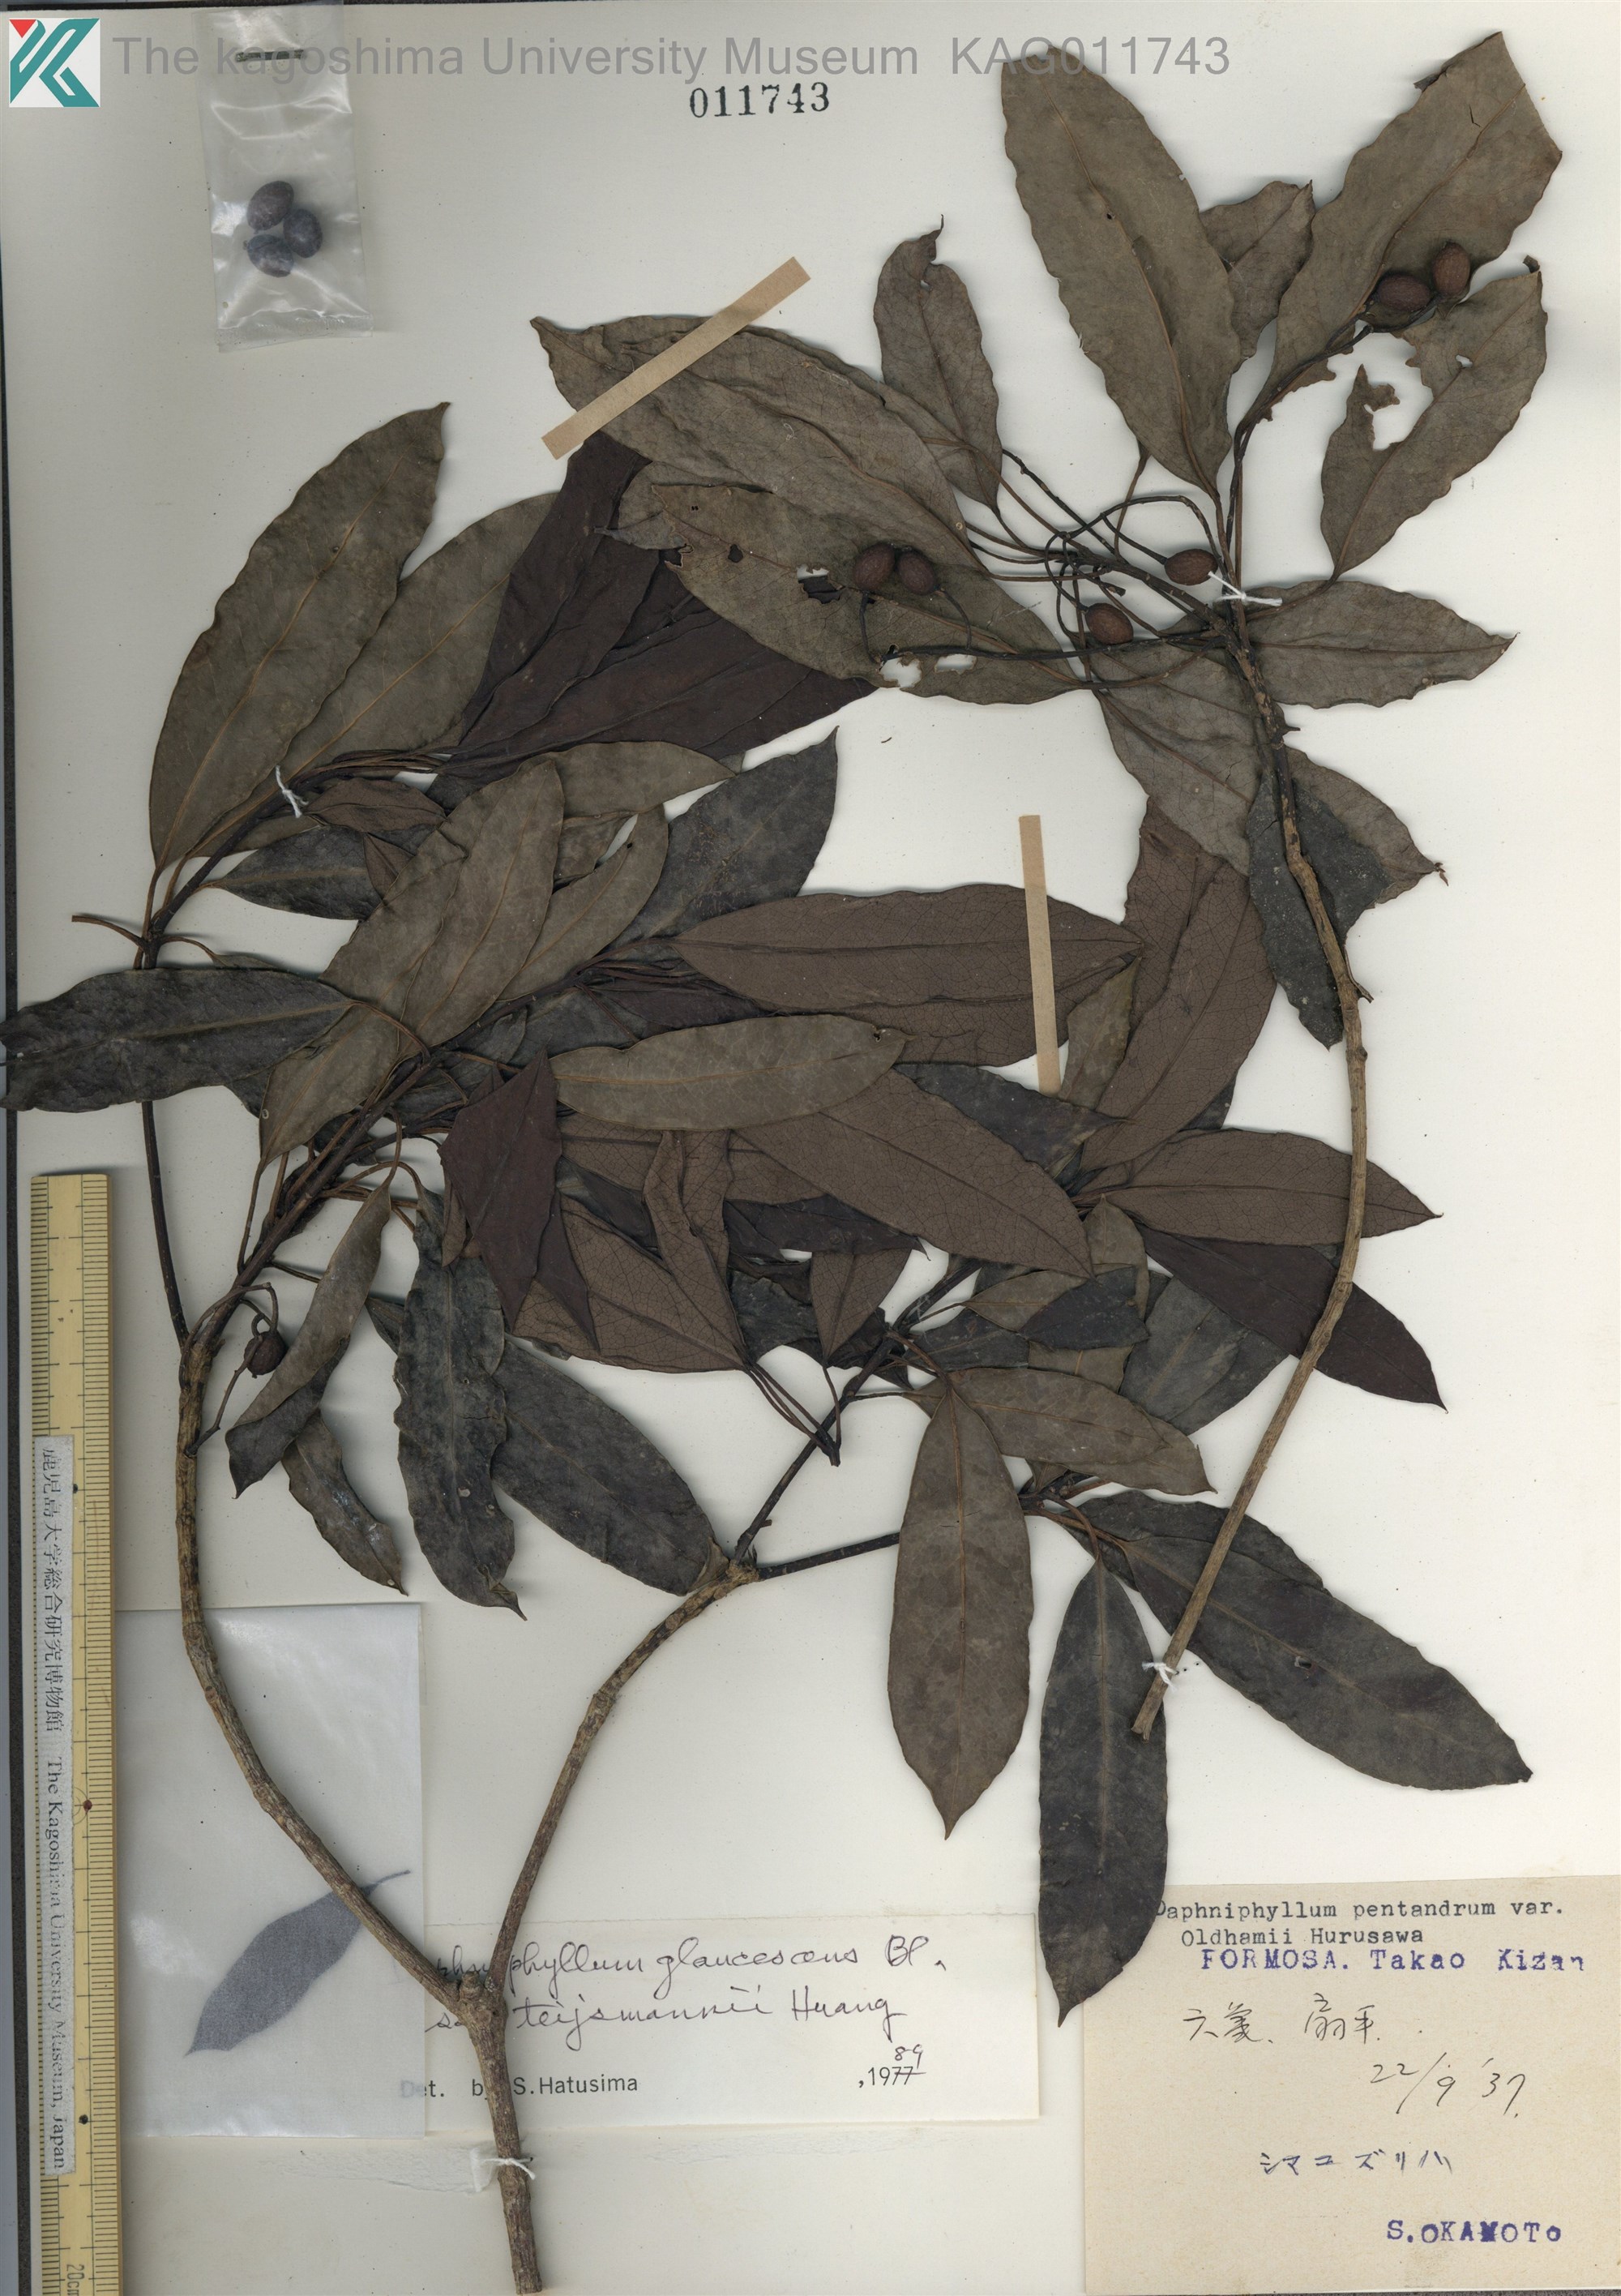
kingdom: Plantae
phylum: Tracheophyta
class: Magnoliopsida
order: Saxifragales
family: Daphniphyllaceae
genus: Daphniphyllum
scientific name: Daphniphyllum teijsmannii
